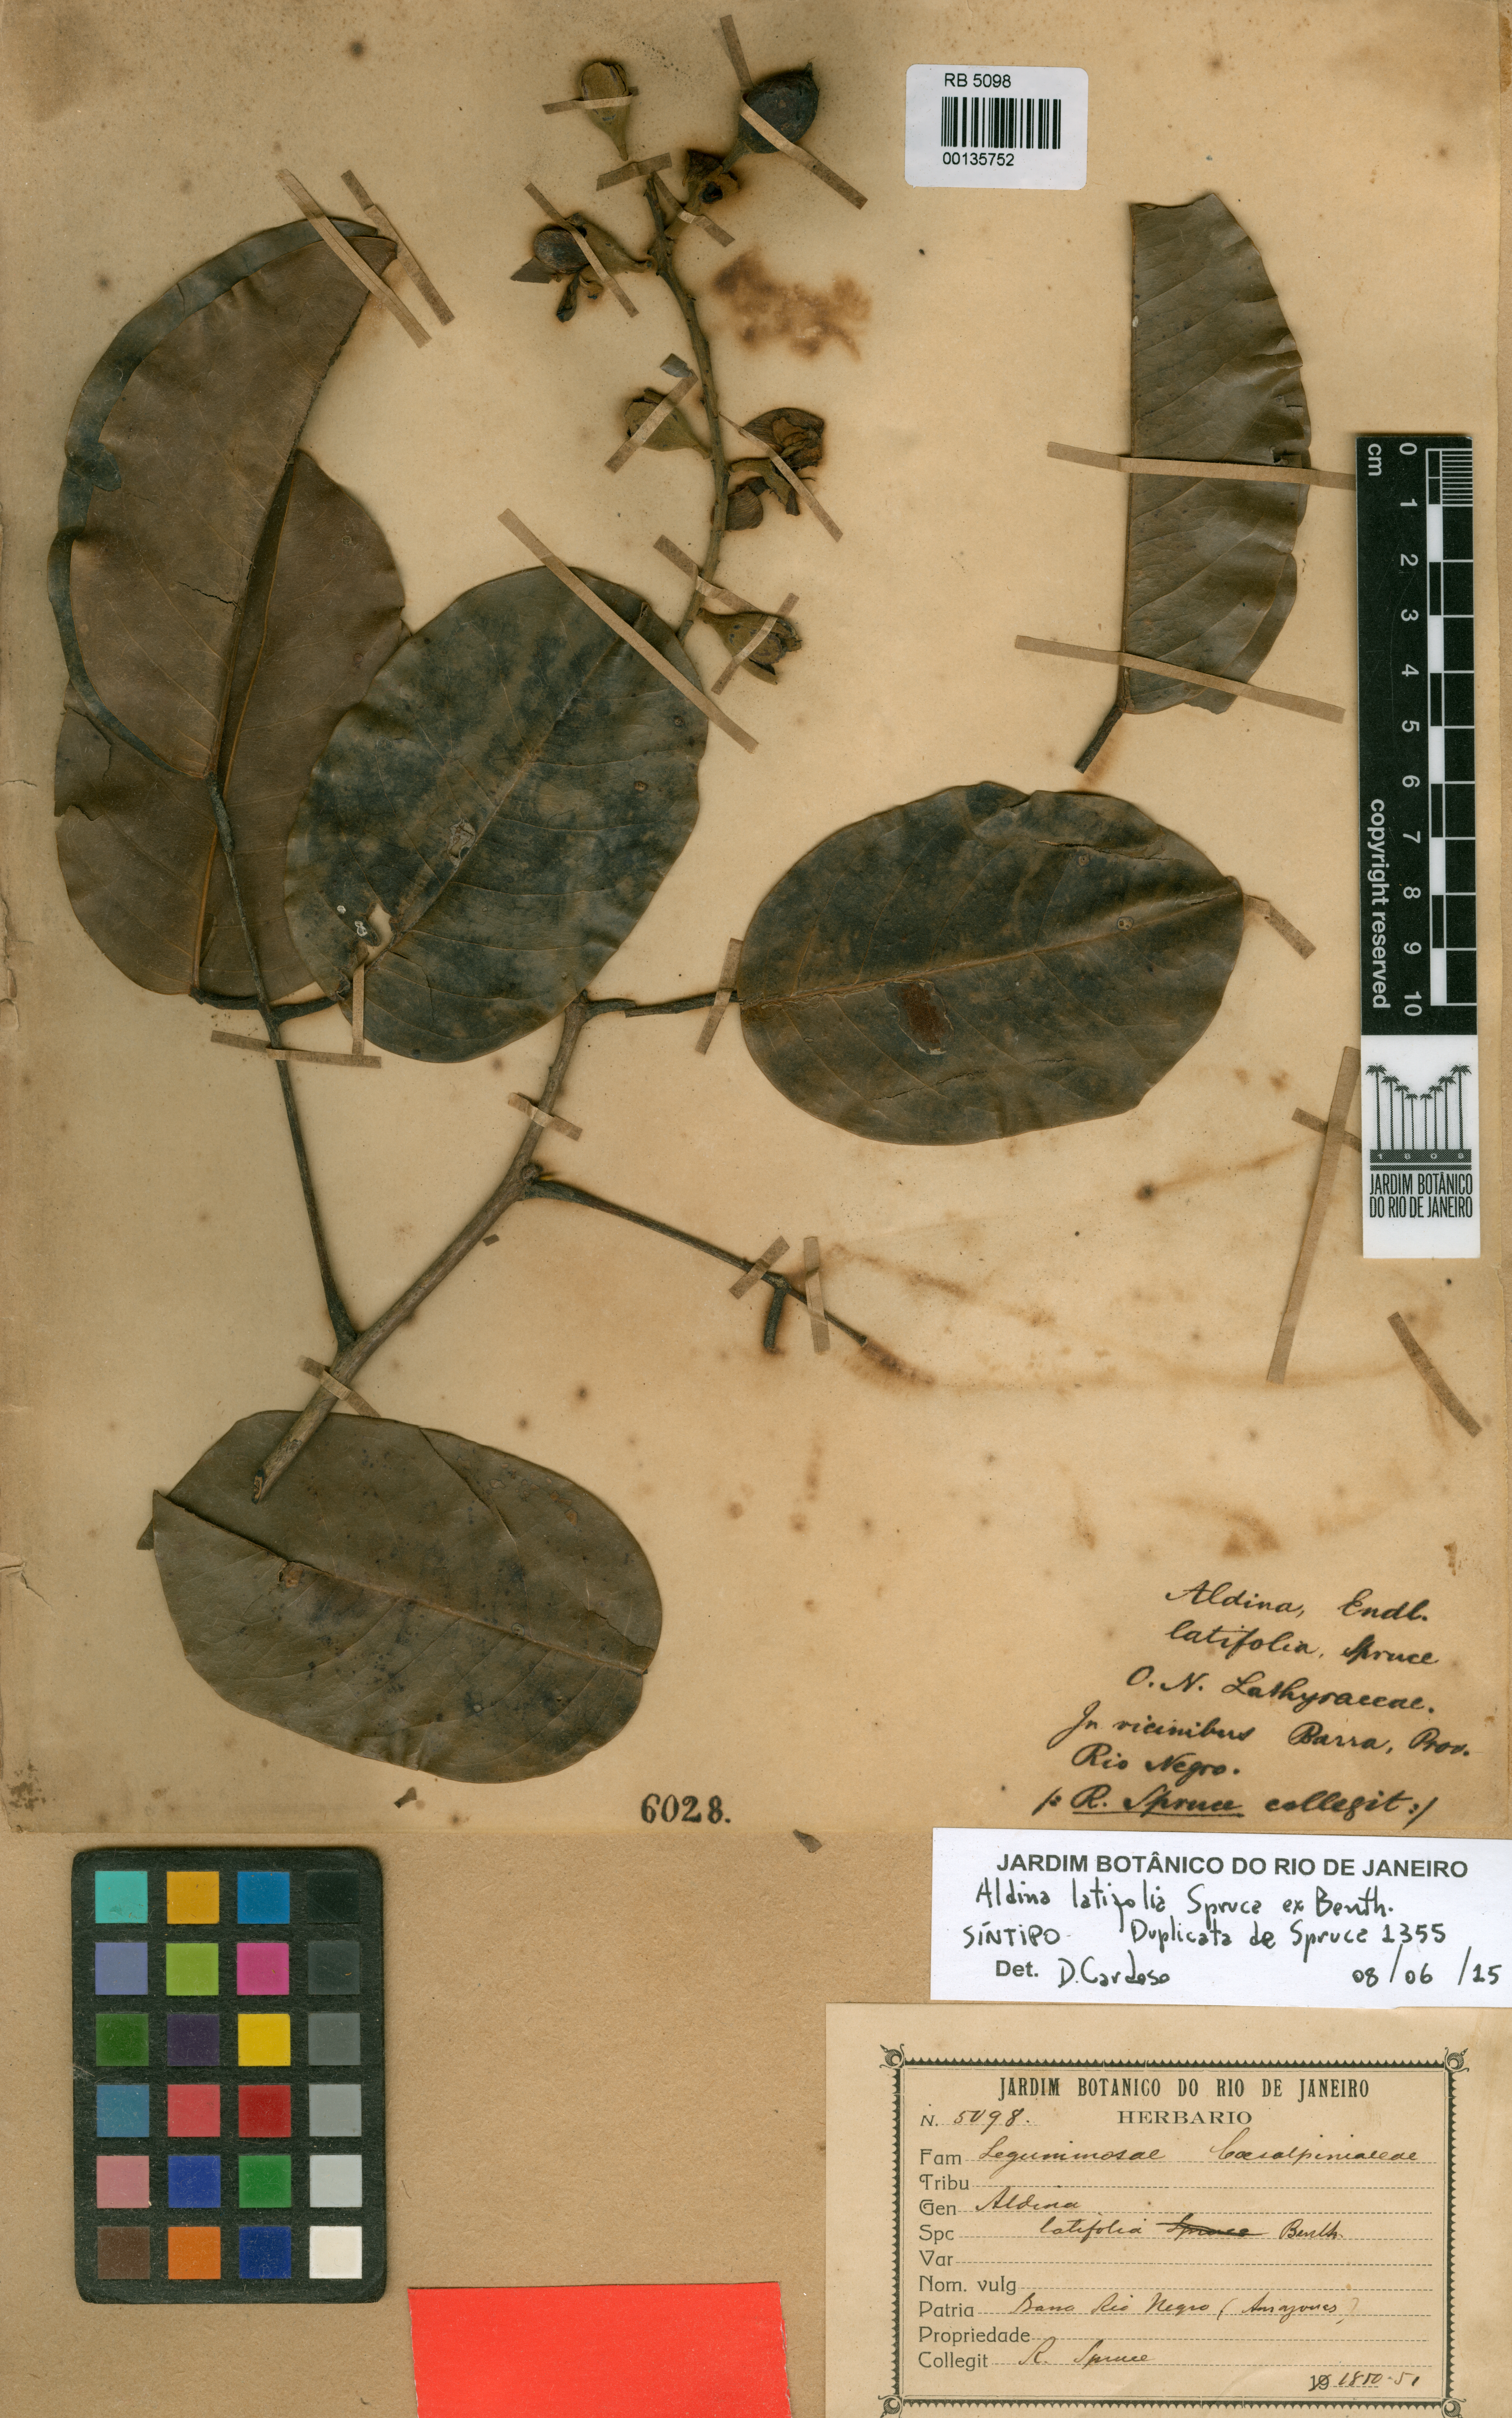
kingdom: Plantae
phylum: Tracheophyta
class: Magnoliopsida
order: Fabales
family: Fabaceae
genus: Aldina
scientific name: Aldina latifolia
